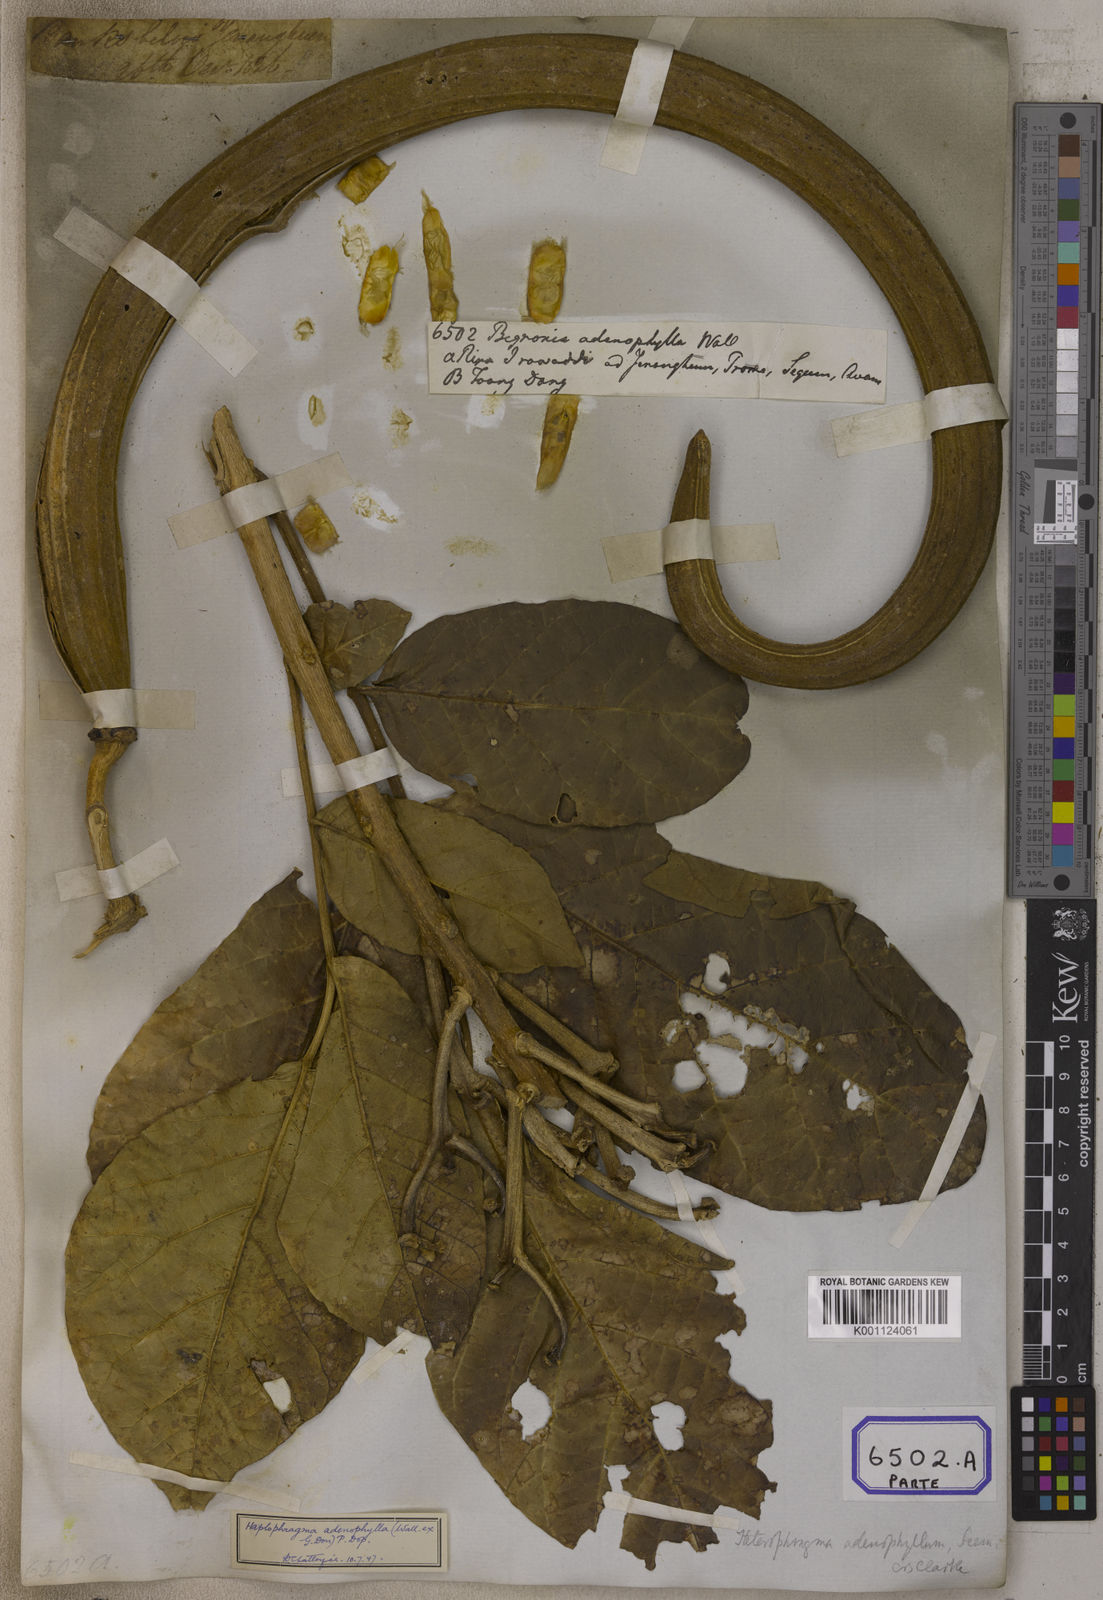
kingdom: Plantae
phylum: Tracheophyta
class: Magnoliopsida
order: Lamiales
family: Bignoniaceae
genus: Bignonia
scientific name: Bignonia
